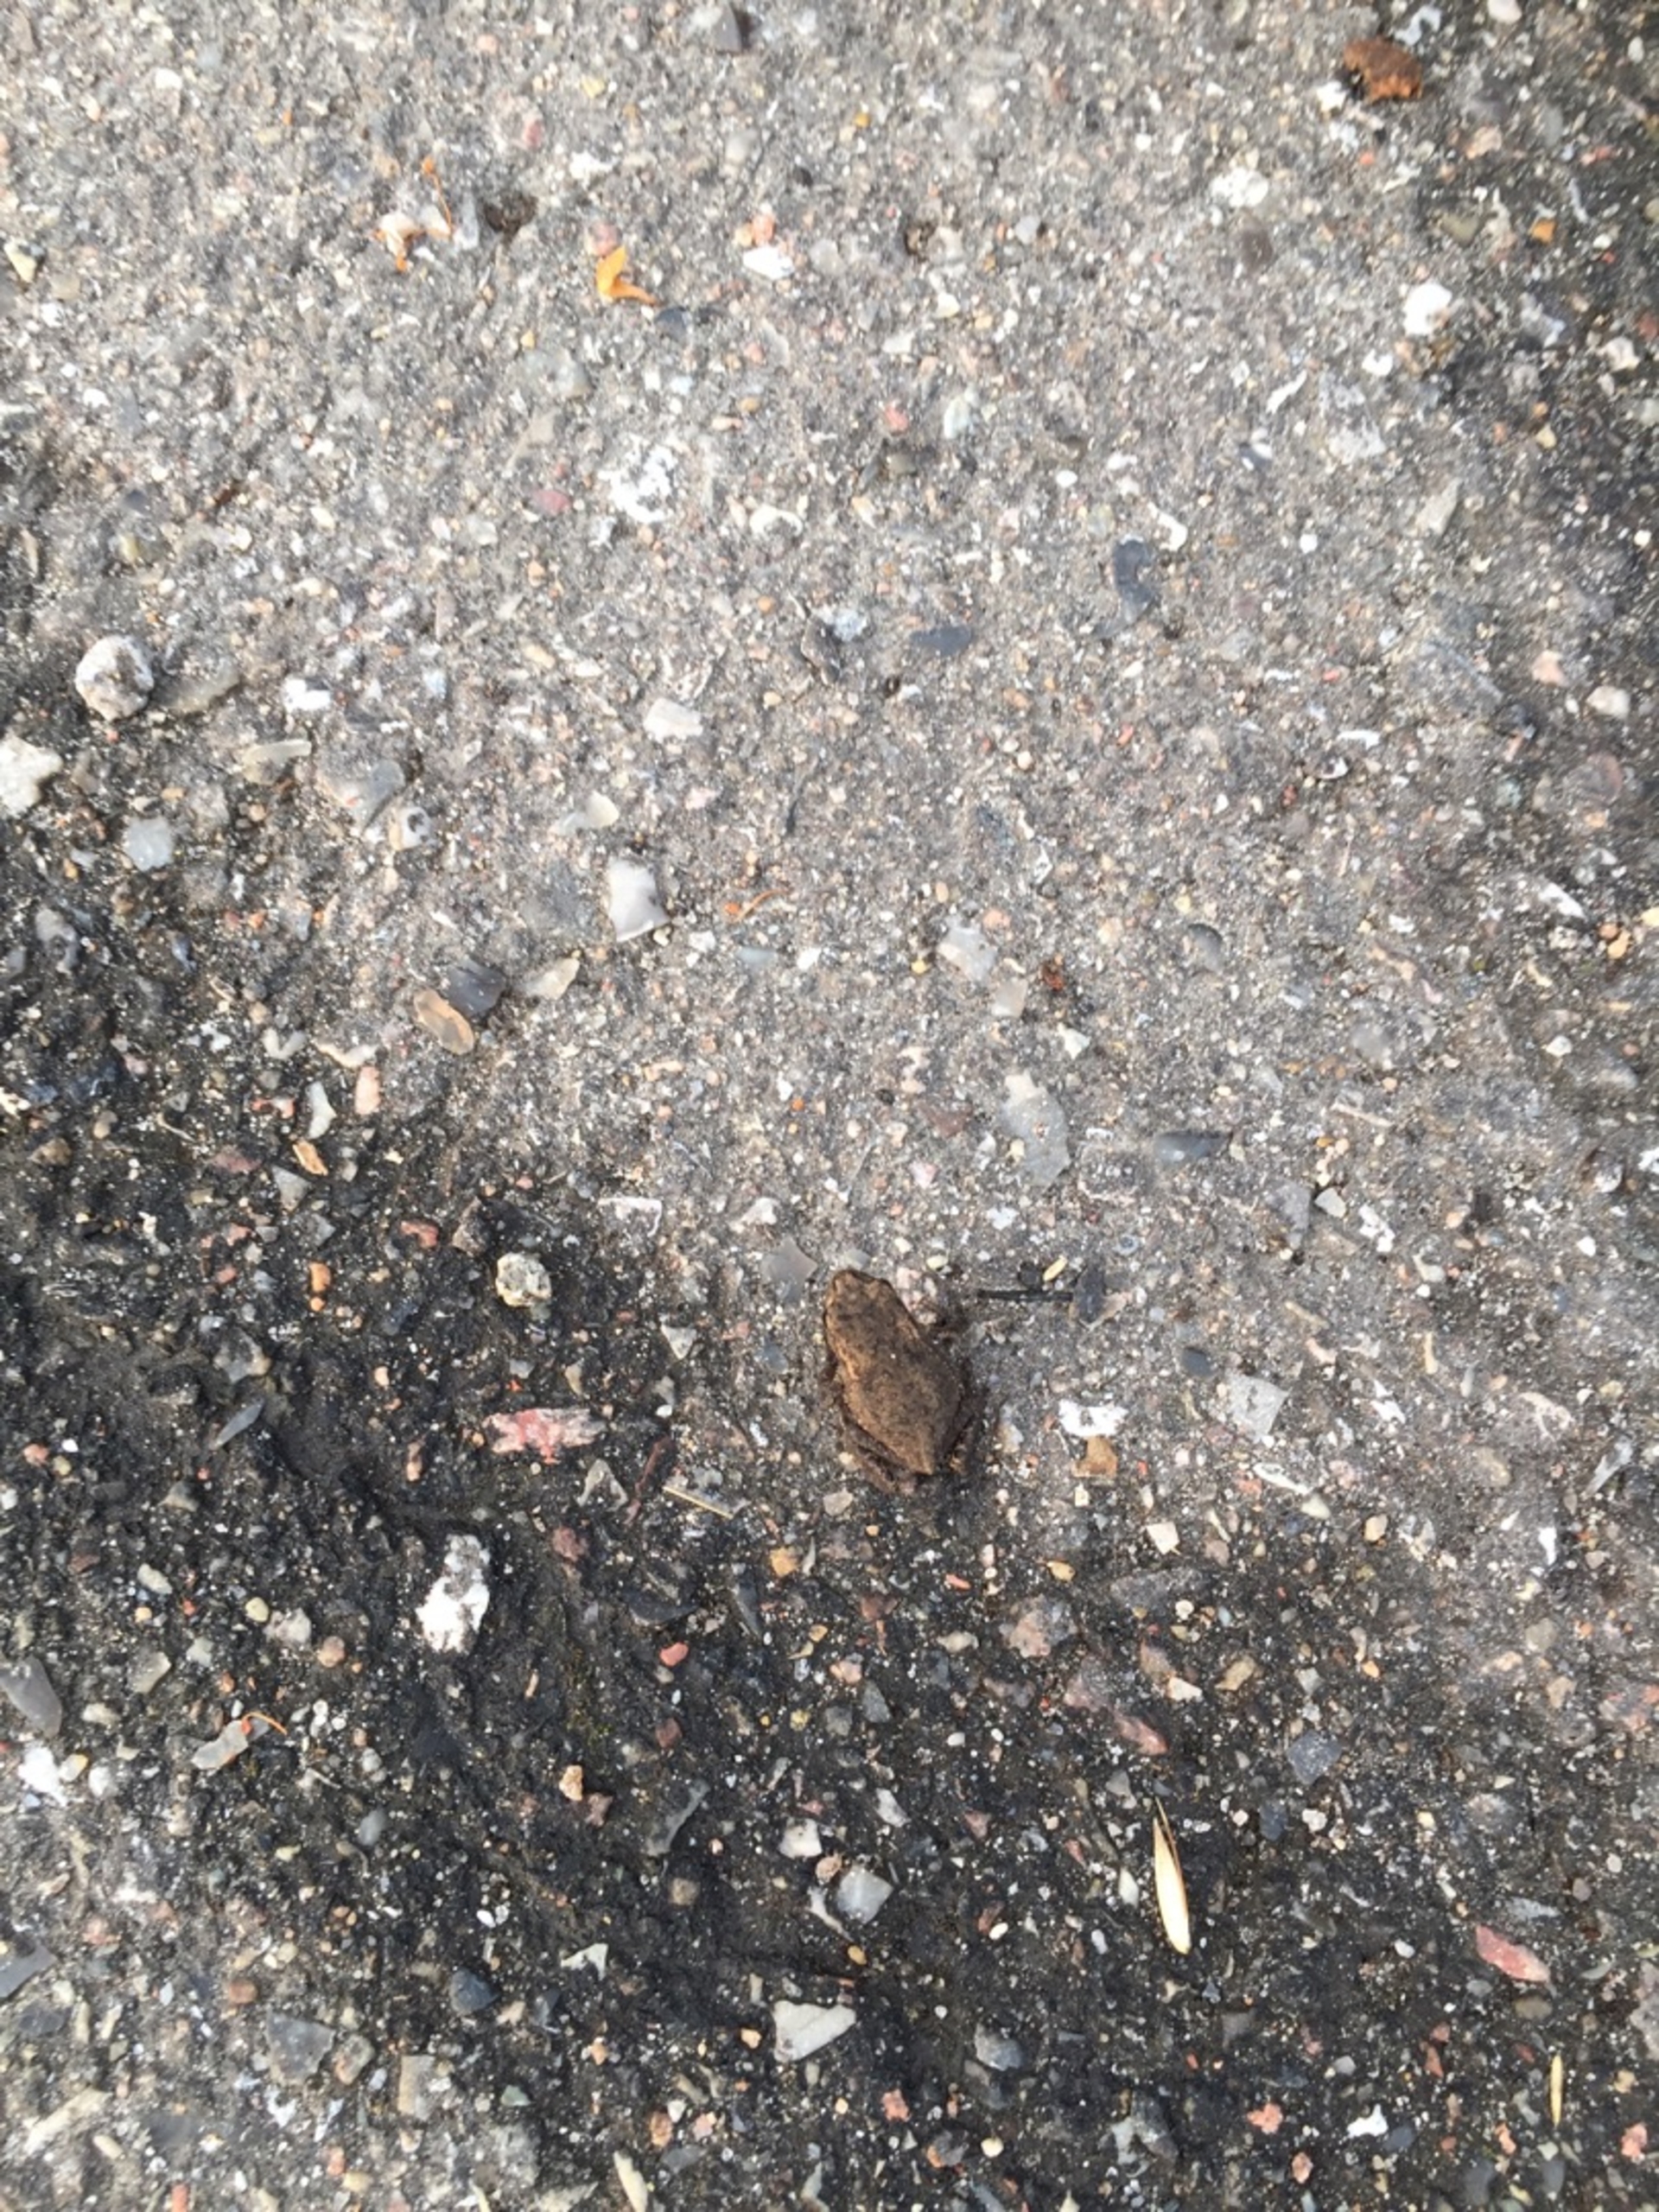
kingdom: Animalia
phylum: Chordata
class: Amphibia
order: Anura
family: Bufonidae
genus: Bufo
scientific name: Bufo bufo
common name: Skrubtudse
